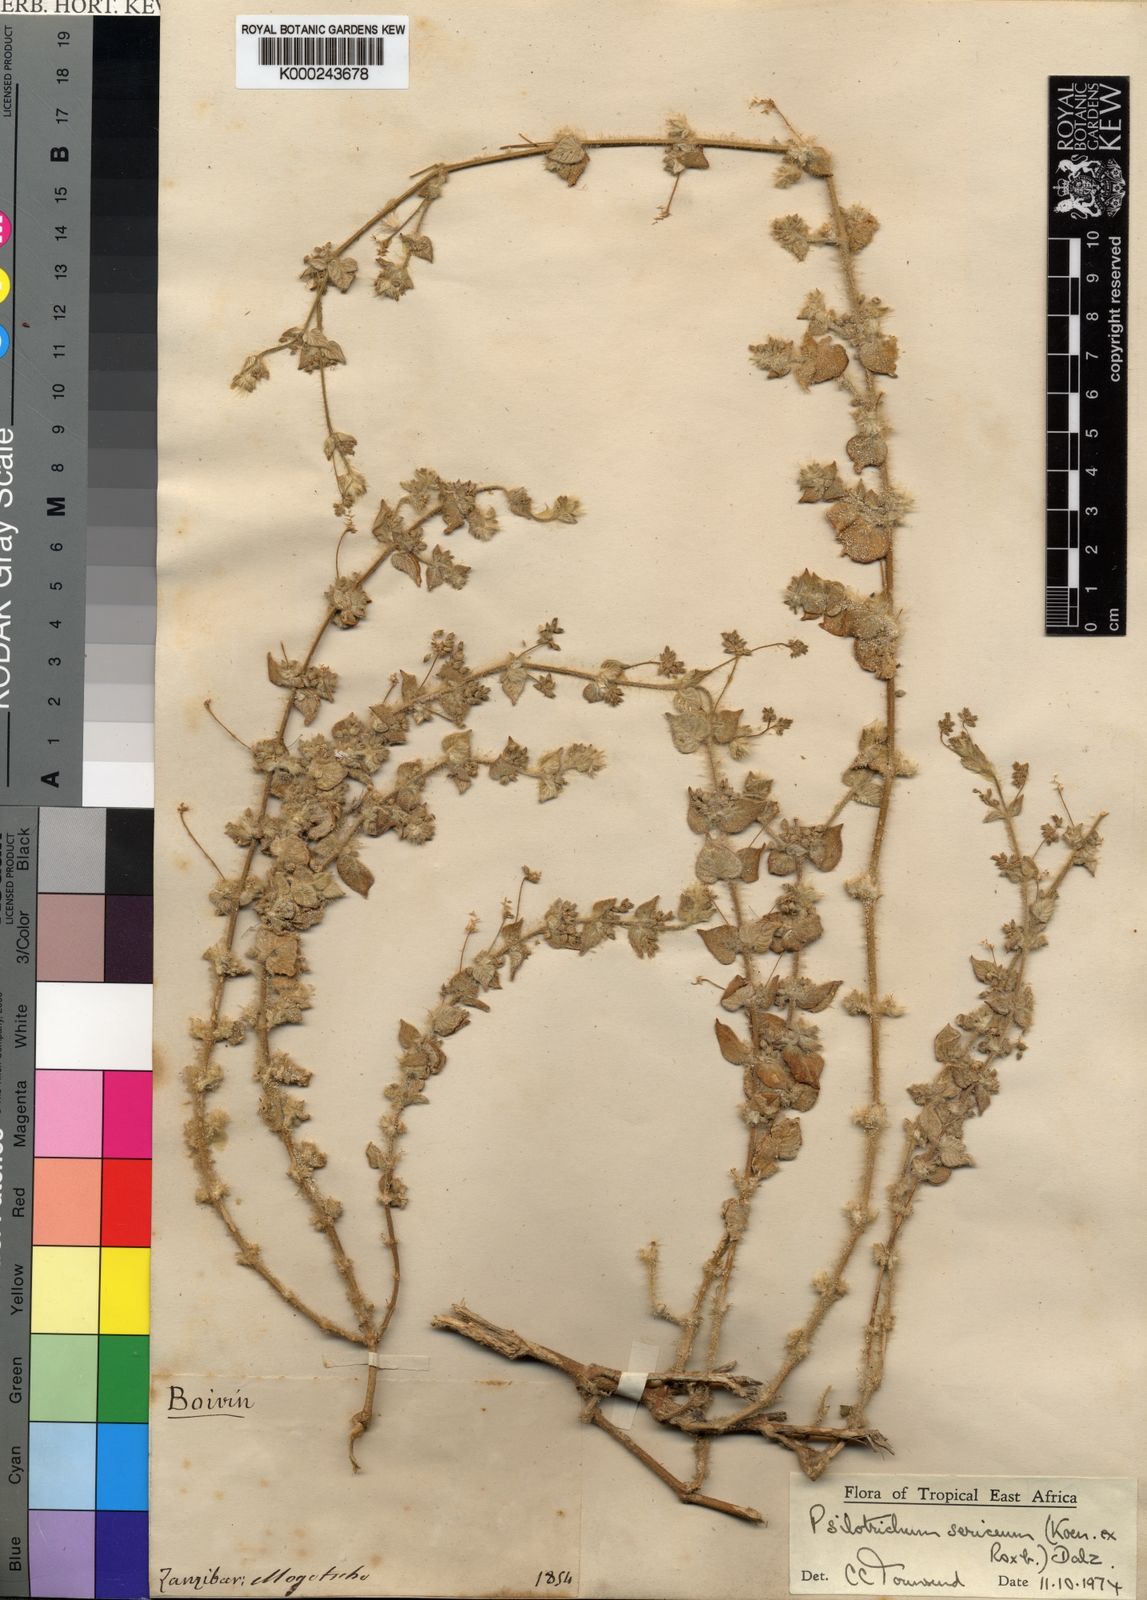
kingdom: Plantae
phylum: Tracheophyta
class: Magnoliopsida
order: Caryophyllales
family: Amaranthaceae
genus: Psilotrichum
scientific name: Psilotrichum sericeum
